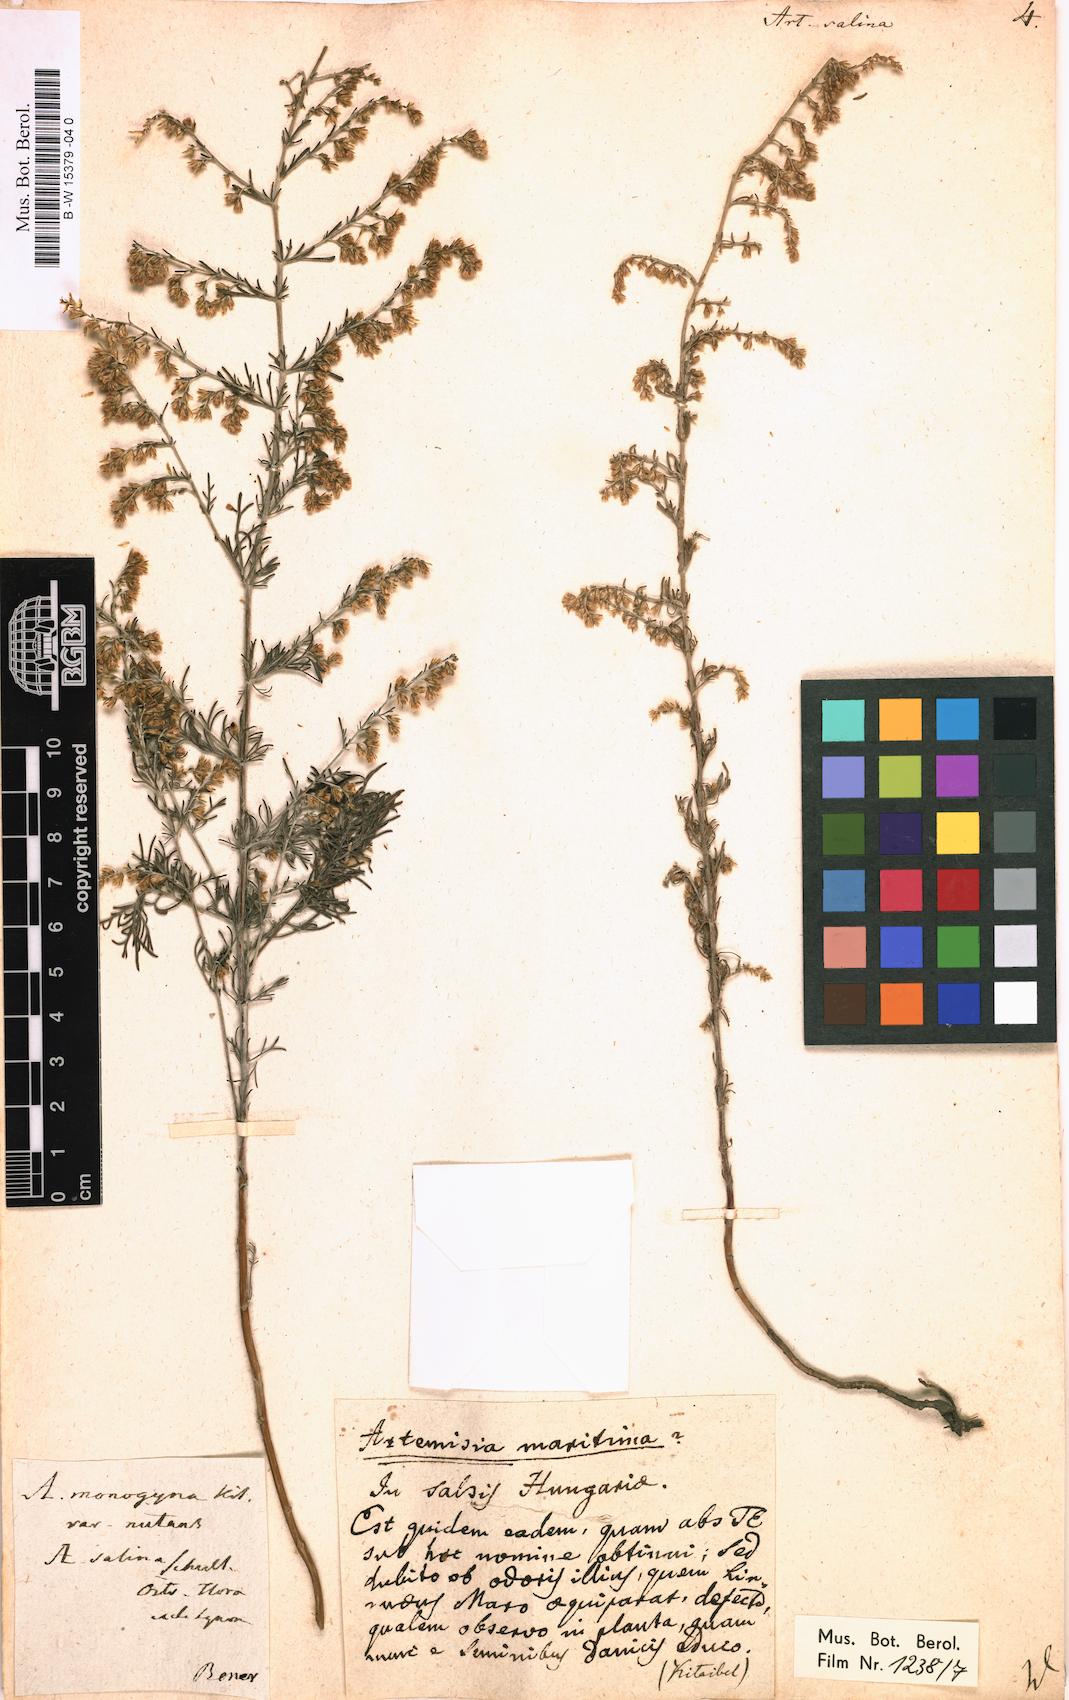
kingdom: Plantae
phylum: Tracheophyta
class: Magnoliopsida
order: Asterales
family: Asteraceae
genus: Artemisia
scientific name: Artemisia maritima
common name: Wormseed
